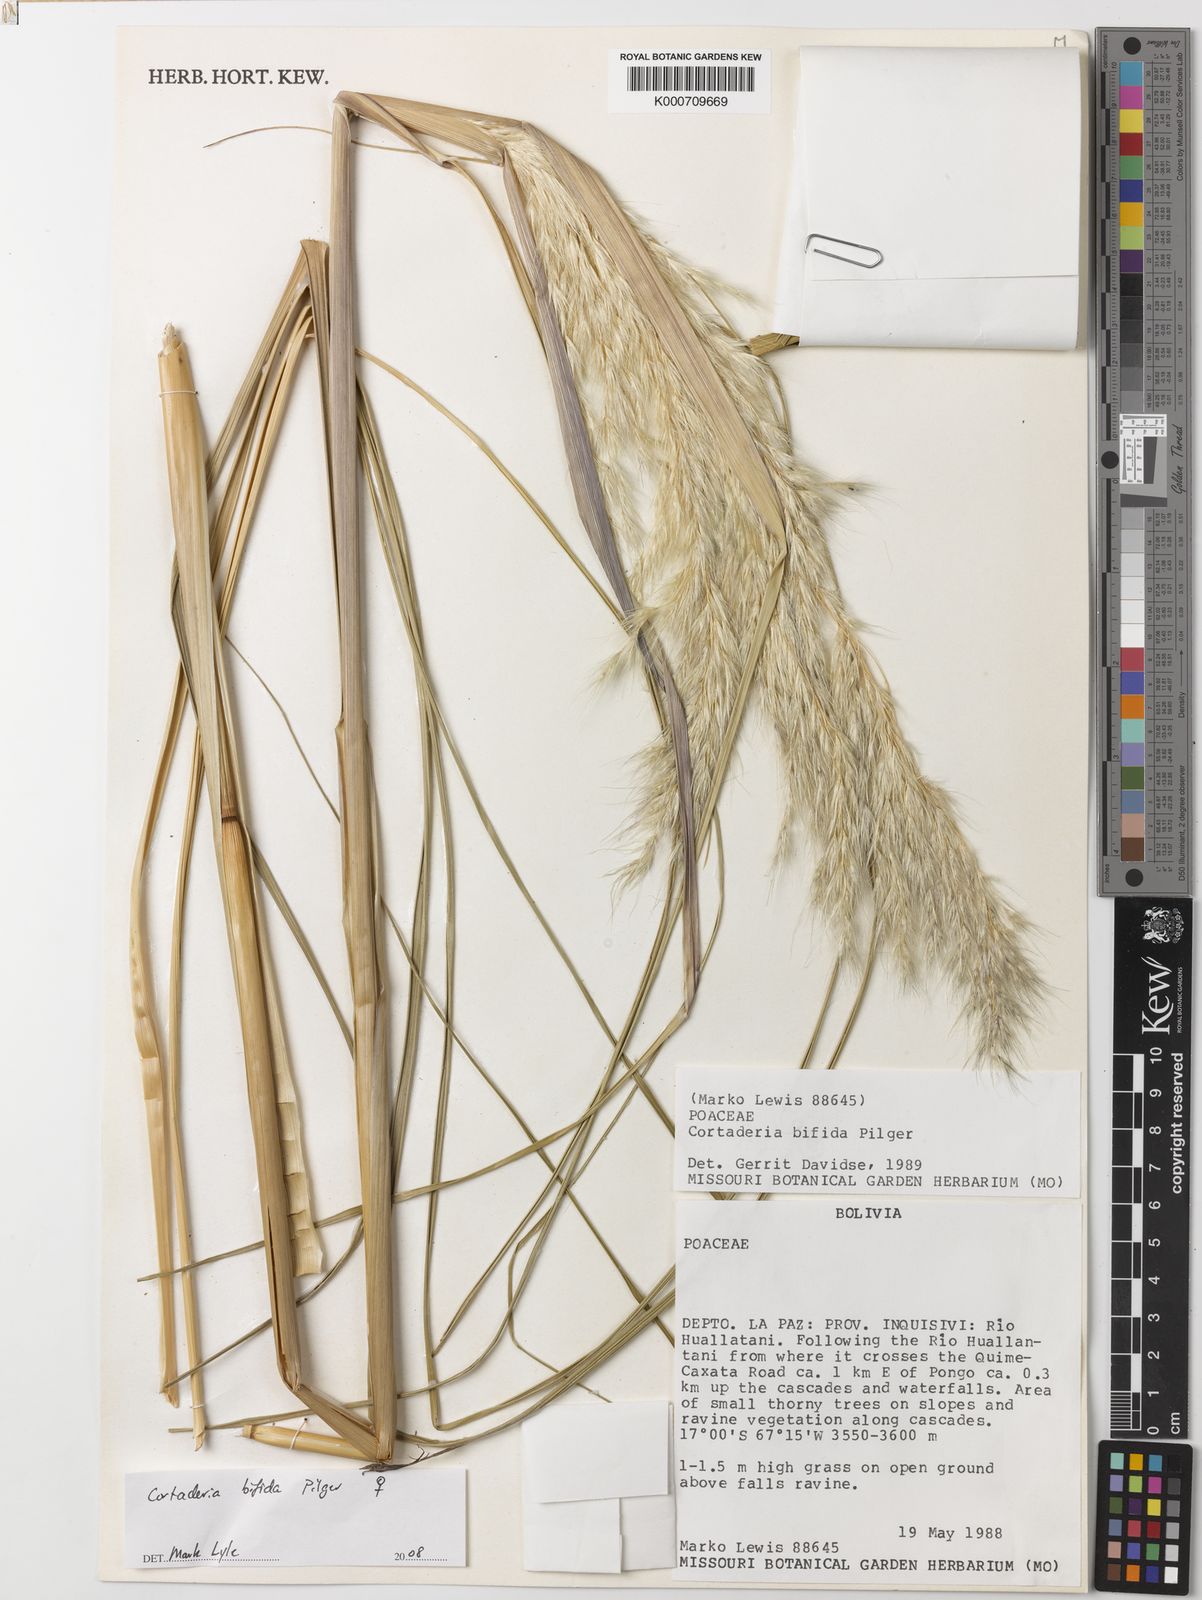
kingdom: Plantae
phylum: Tracheophyta
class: Liliopsida
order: Poales
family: Poaceae
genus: Cortaderia
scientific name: Cortaderia bifida
